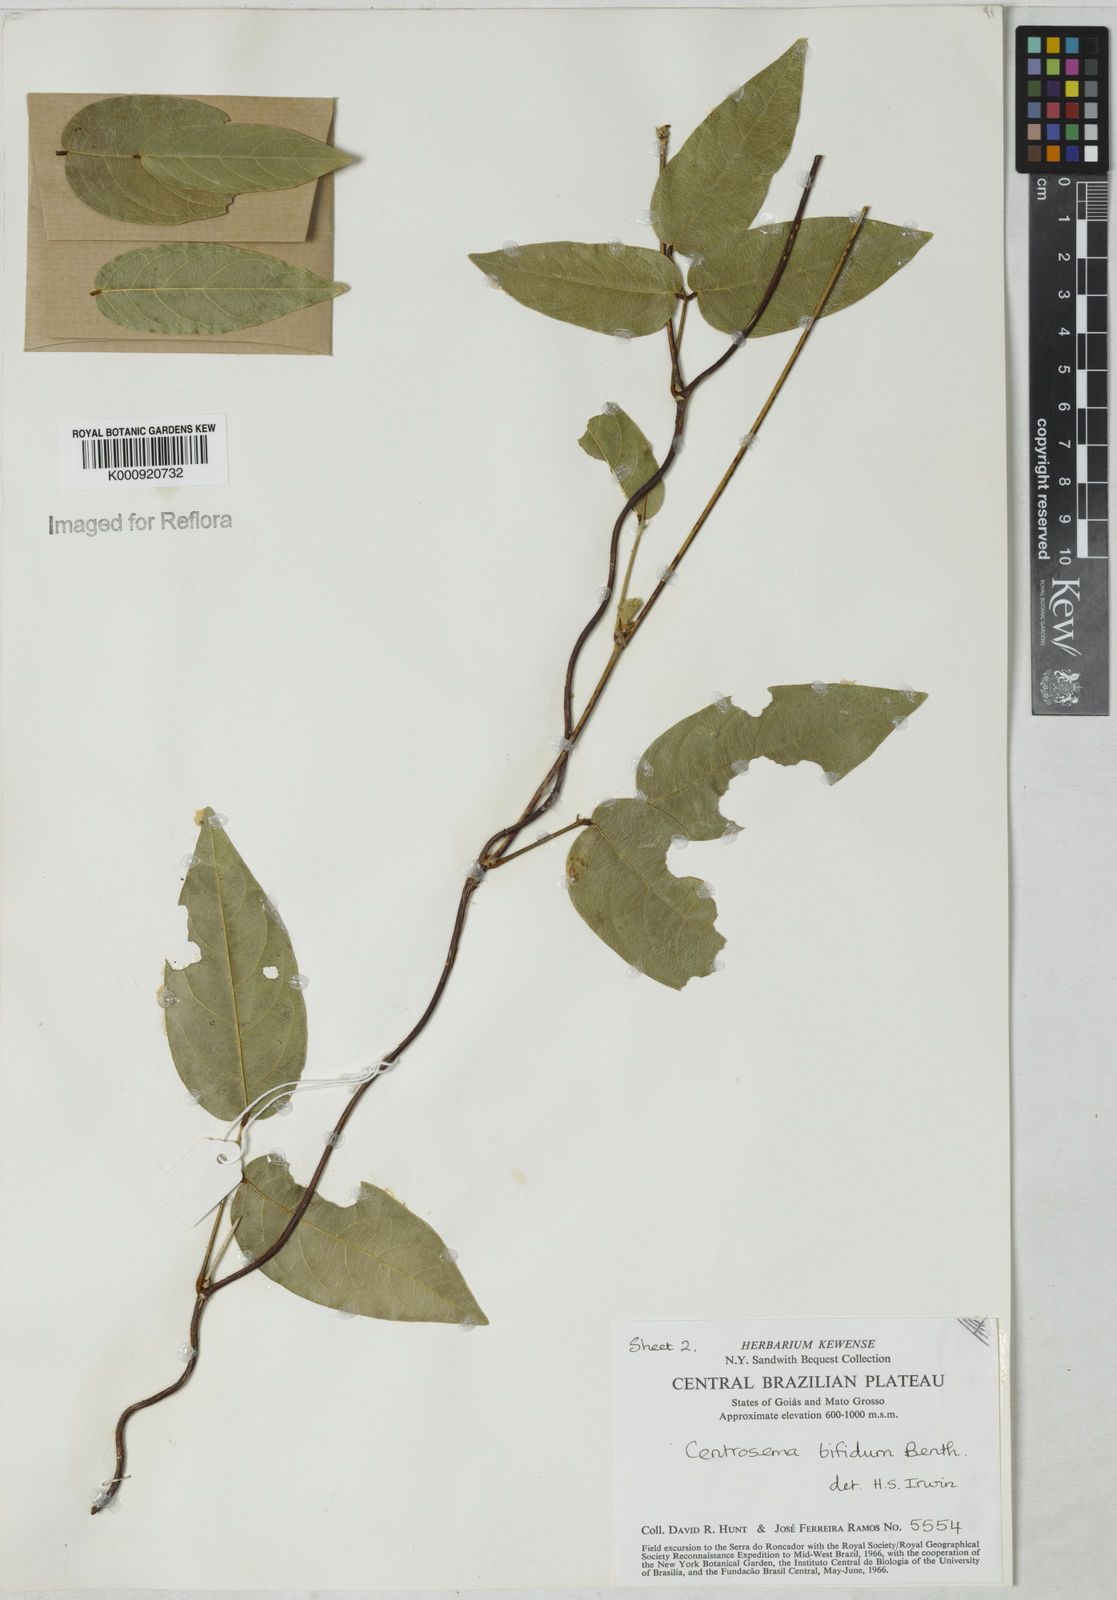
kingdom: Plantae
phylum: Tracheophyta
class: Magnoliopsida
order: Fabales
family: Fabaceae
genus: Centrosema
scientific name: Centrosema bifidum
